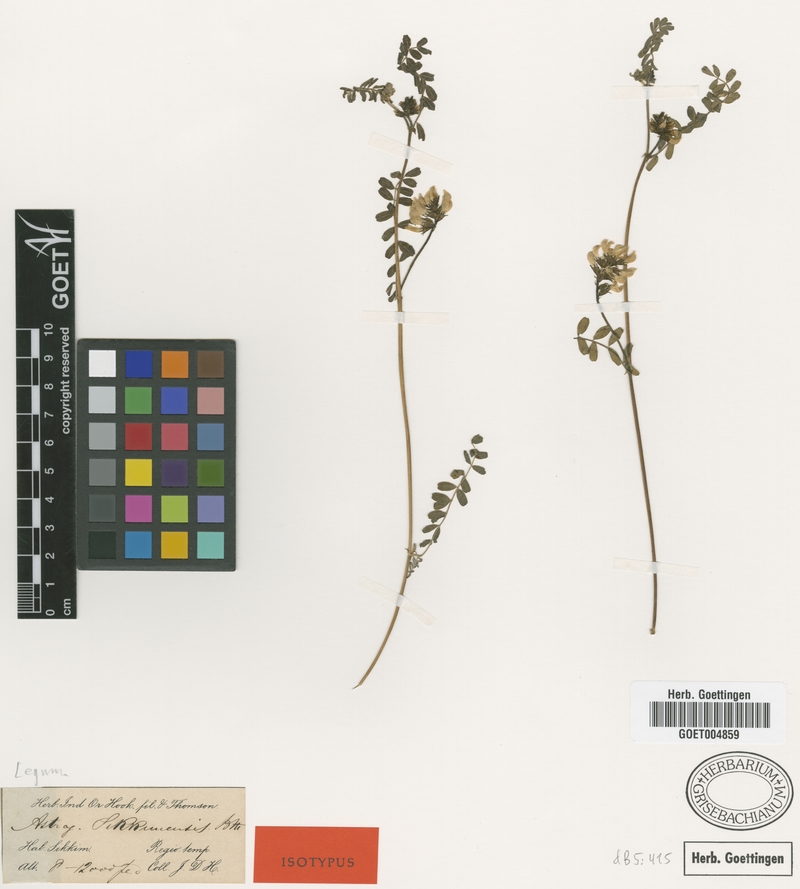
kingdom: Plantae
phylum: Tracheophyta
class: Magnoliopsida
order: Fabales
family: Fabaceae
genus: Astragalus
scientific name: Astragalus sikkimensis
